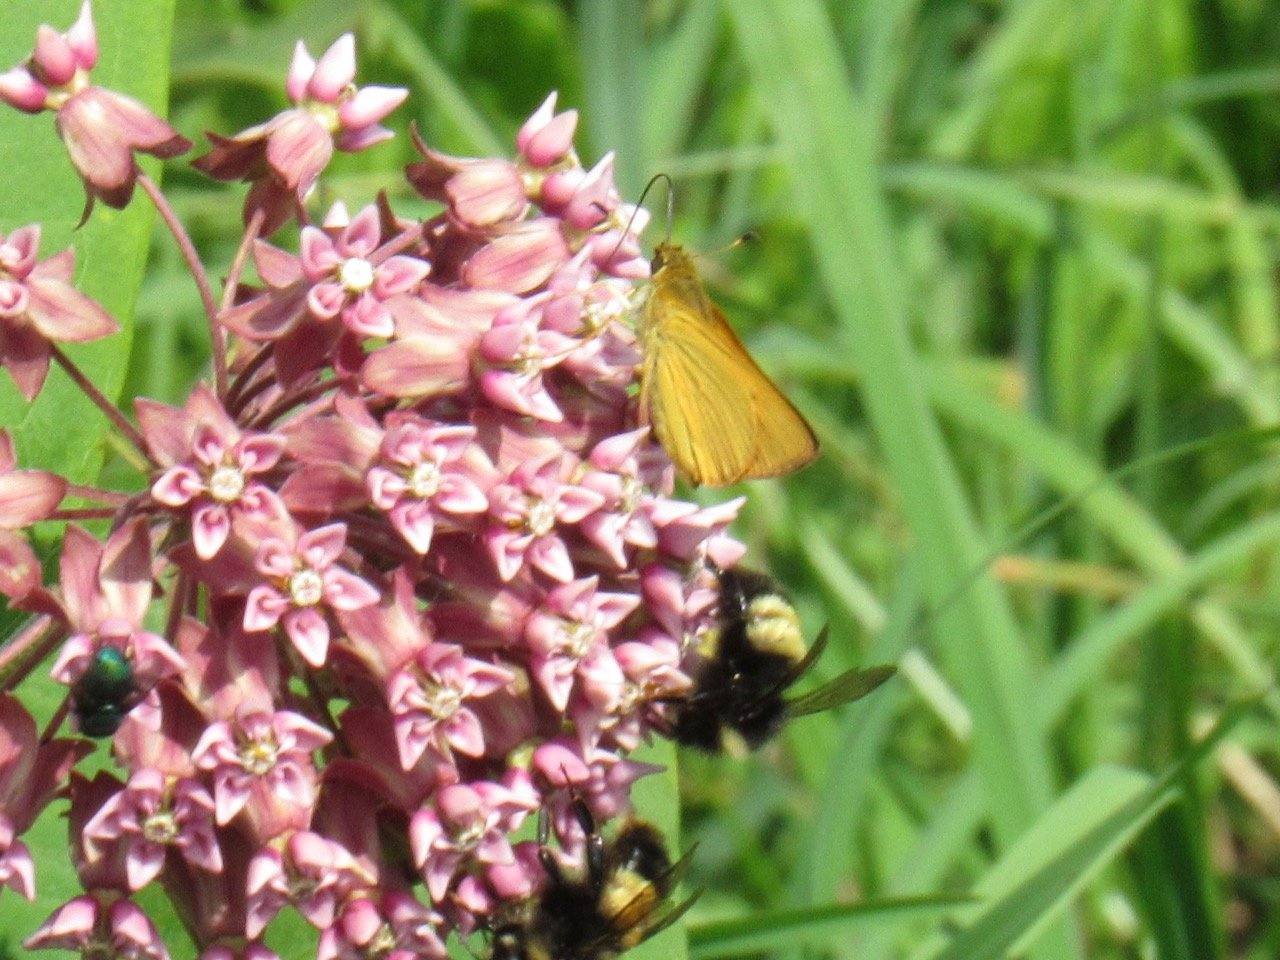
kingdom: Animalia
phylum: Arthropoda
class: Insecta
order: Lepidoptera
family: Hesperiidae
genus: Atrytone
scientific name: Atrytone delaware
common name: Delaware Skipper
